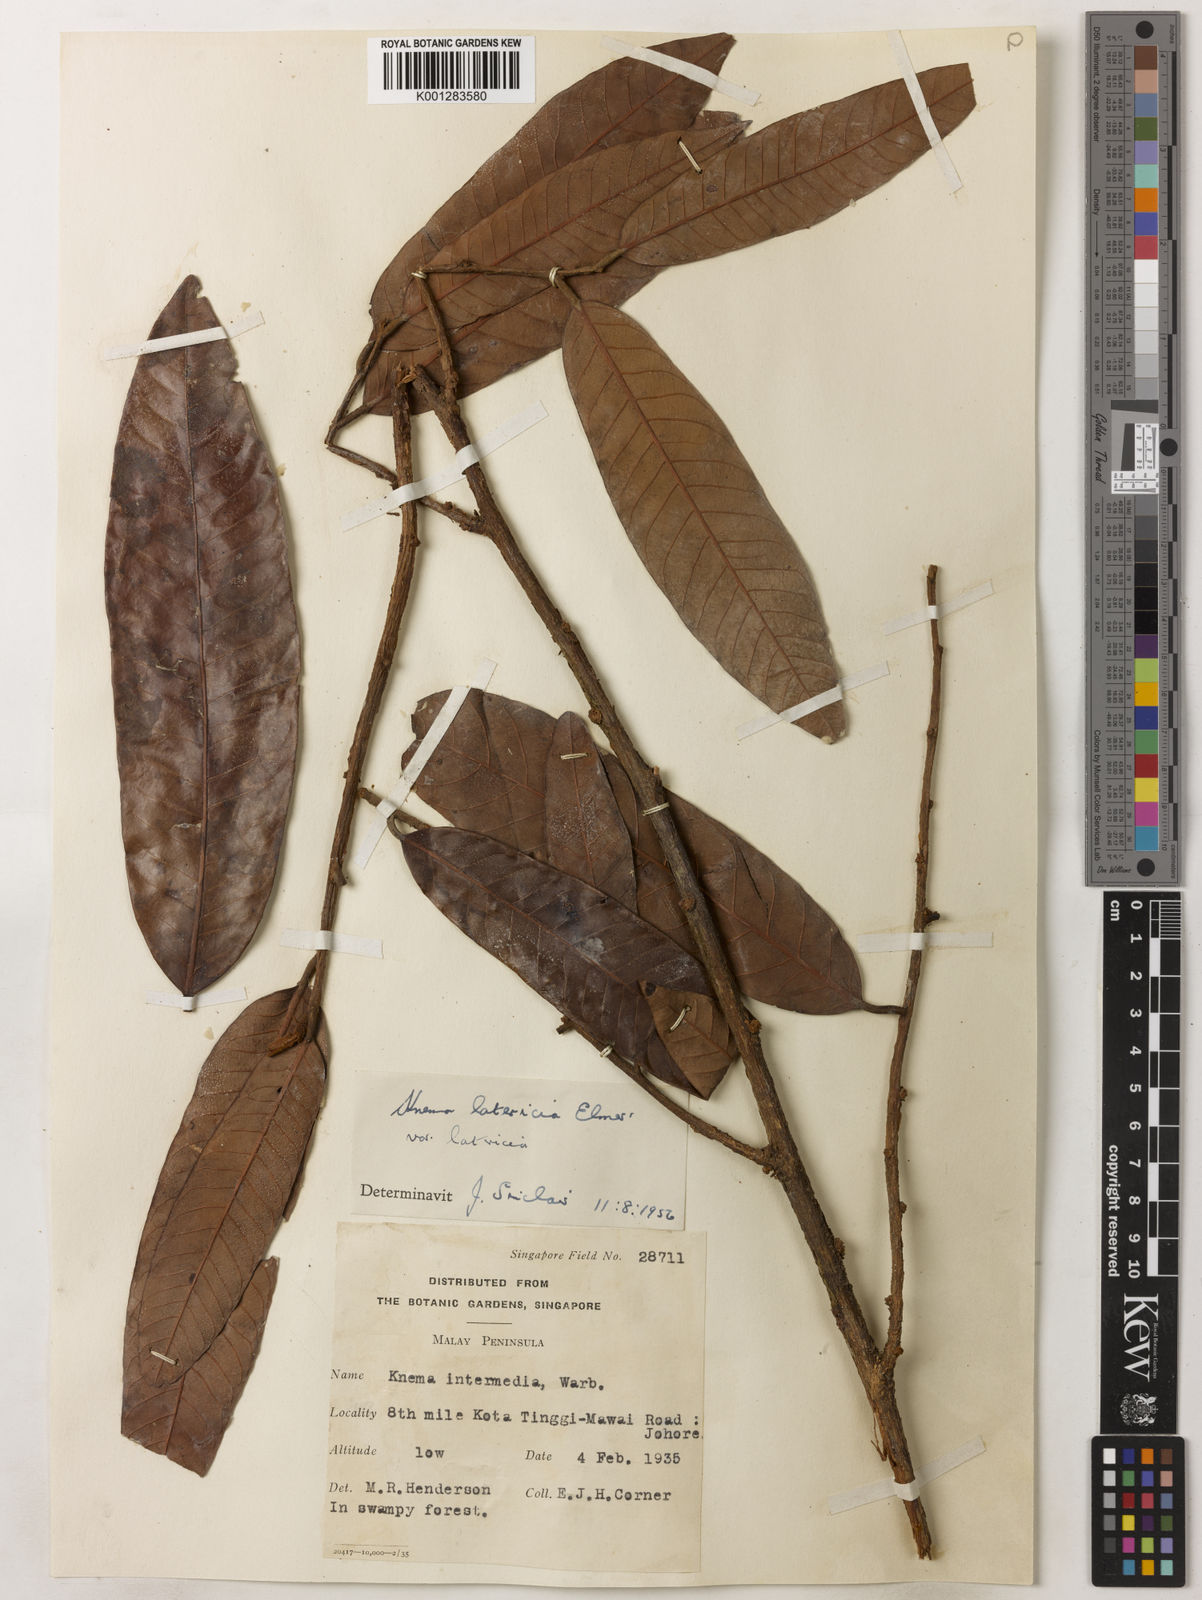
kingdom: Plantae
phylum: Tracheophyta
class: Magnoliopsida
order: Magnoliales
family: Myristicaceae
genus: Knema
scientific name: Knema latericia
